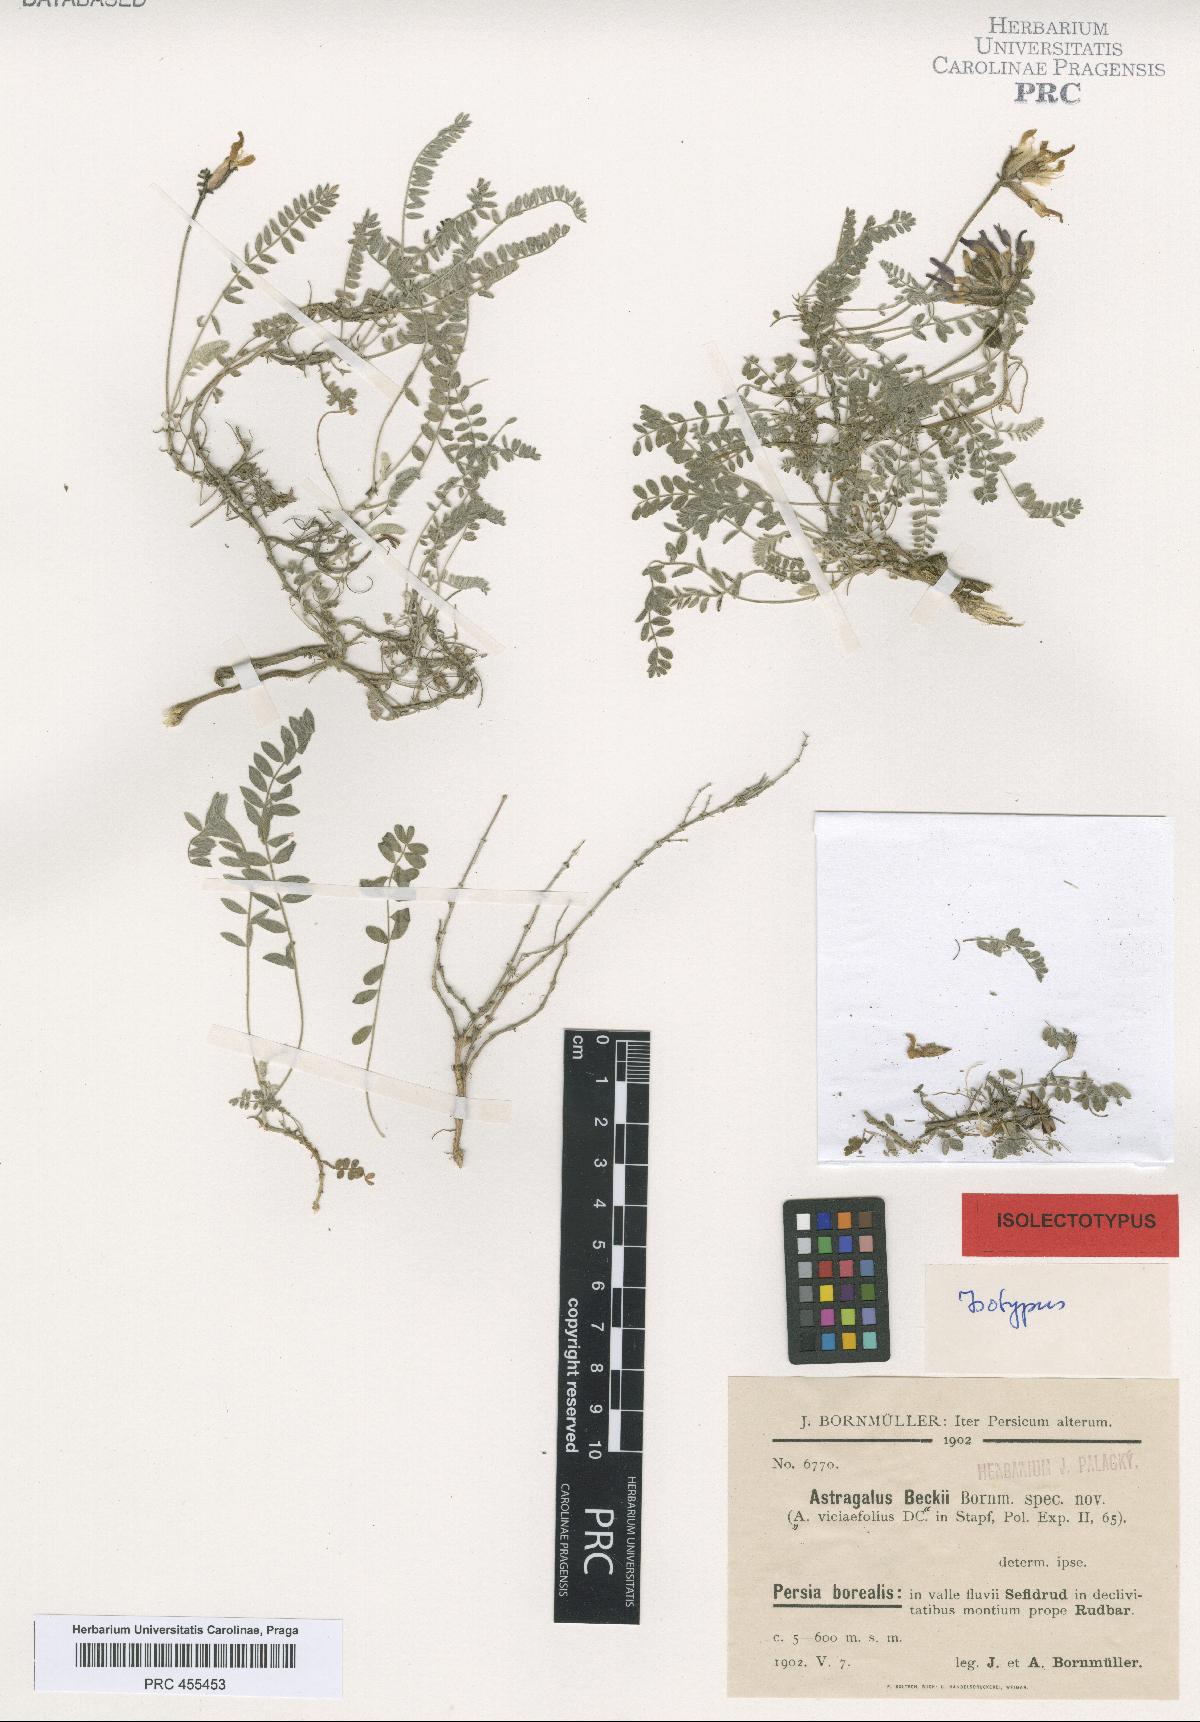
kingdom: Plantae
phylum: Tracheophyta
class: Magnoliopsida
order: Fabales
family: Fabaceae
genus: Astragalus
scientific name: Astragalus beckii
